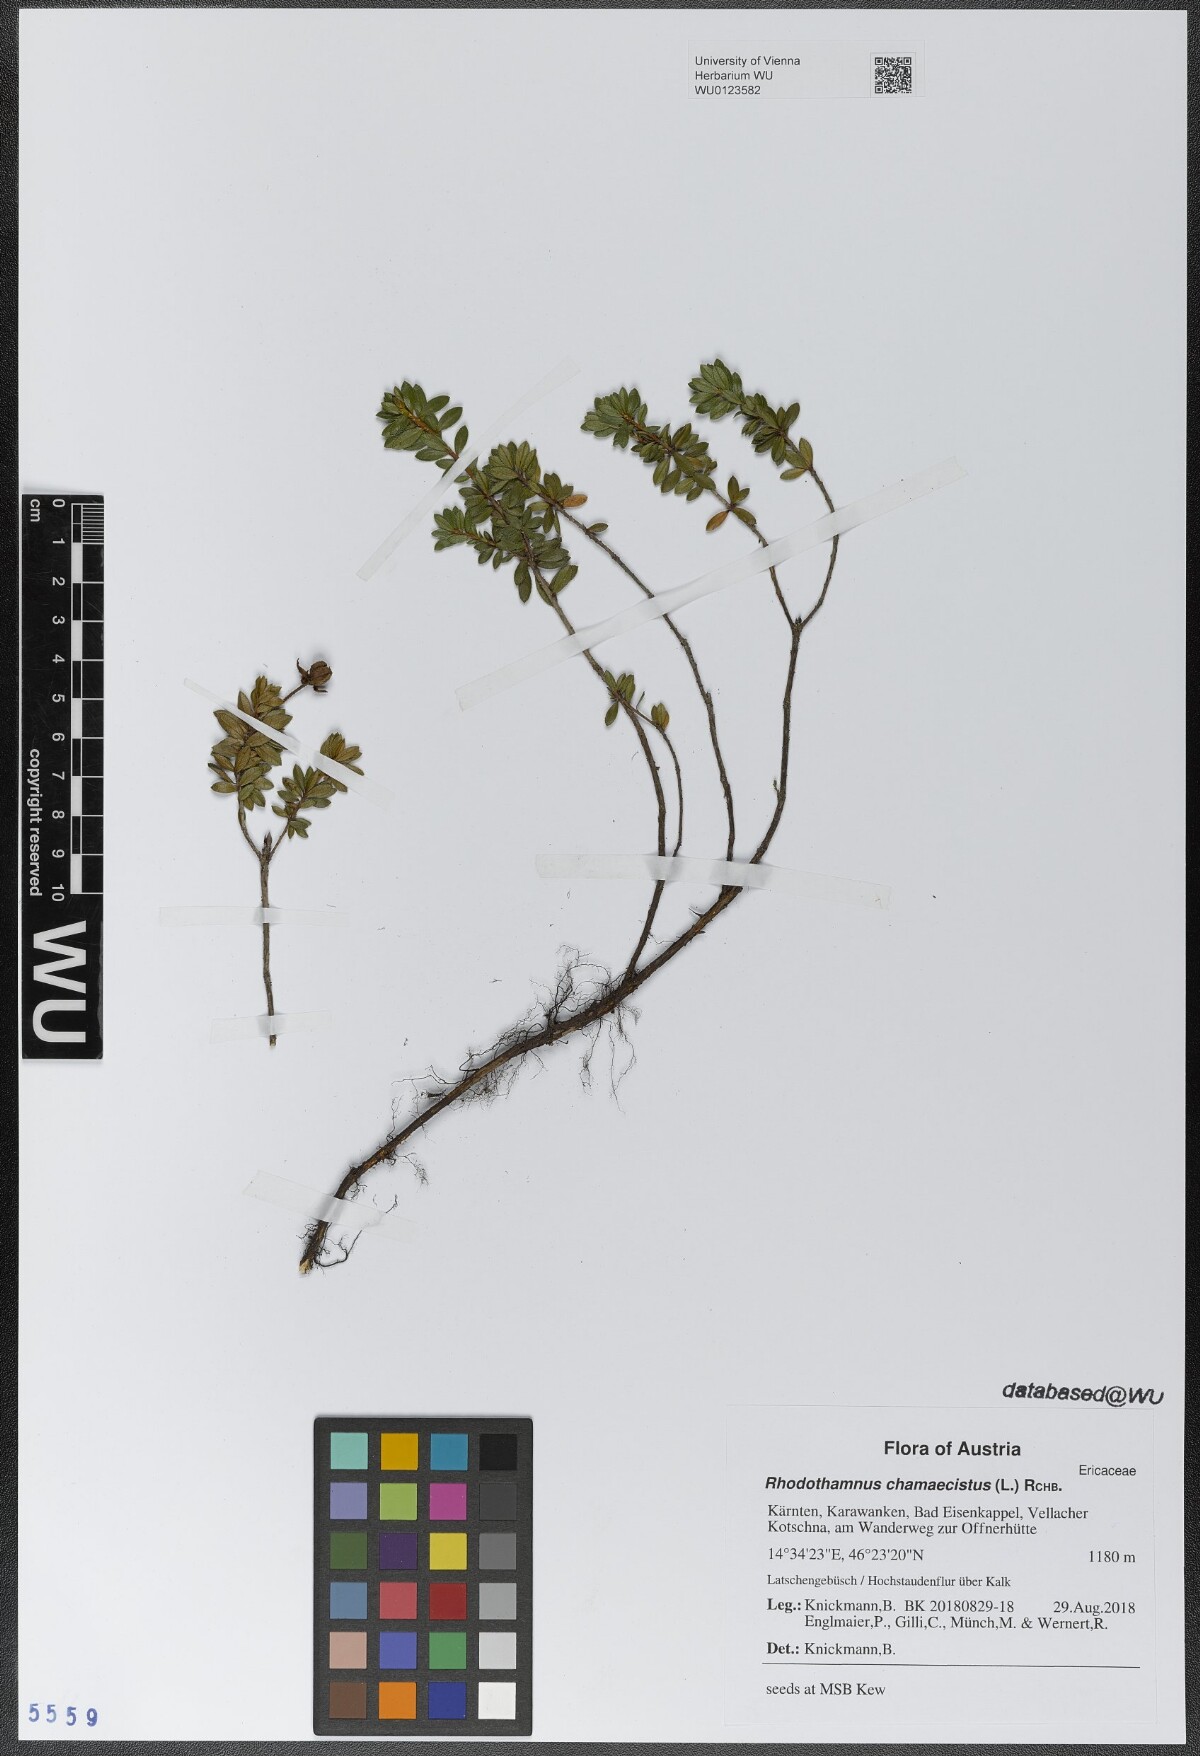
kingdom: Plantae
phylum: Tracheophyta
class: Magnoliopsida
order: Ericales
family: Ericaceae
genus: Rhodothamnus
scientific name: Rhodothamnus chamaecistus
